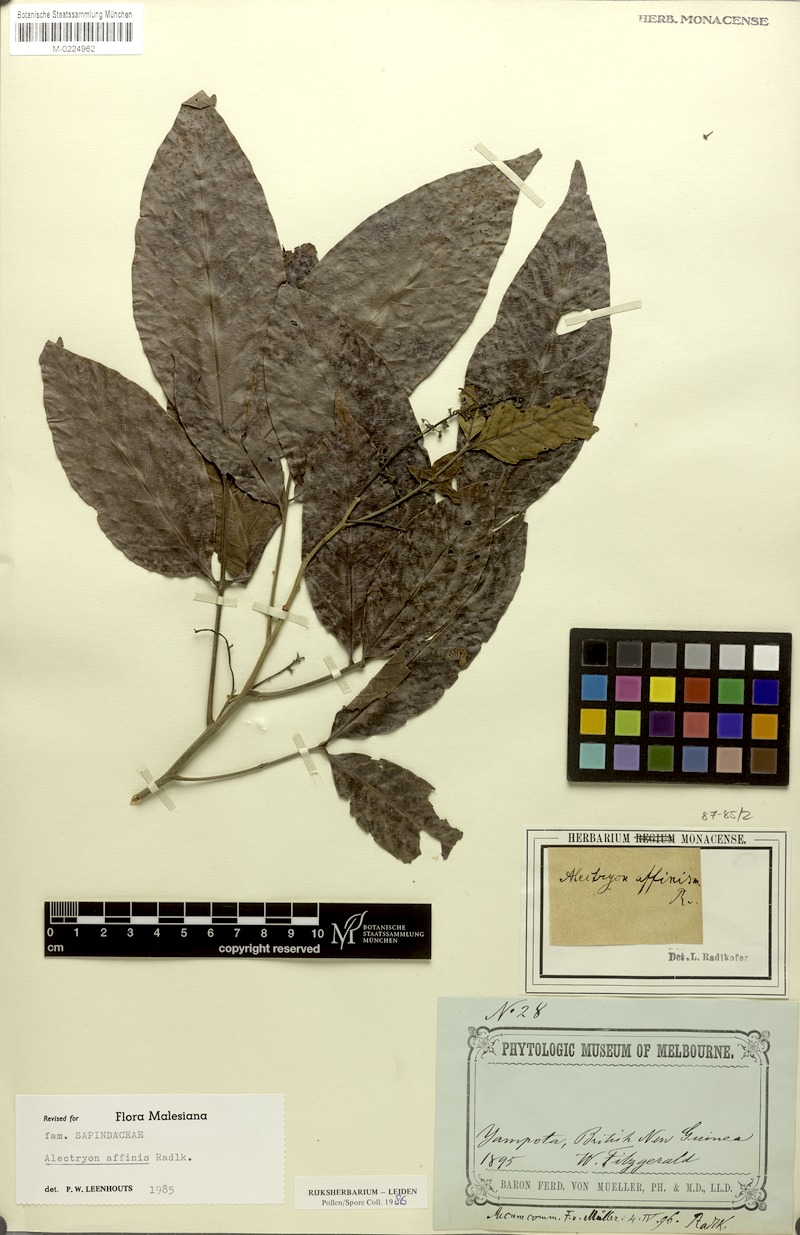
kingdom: Plantae
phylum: Tracheophyta
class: Magnoliopsida
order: Sapindales
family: Sapindaceae
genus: Alectryon
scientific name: Alectryon affinis
